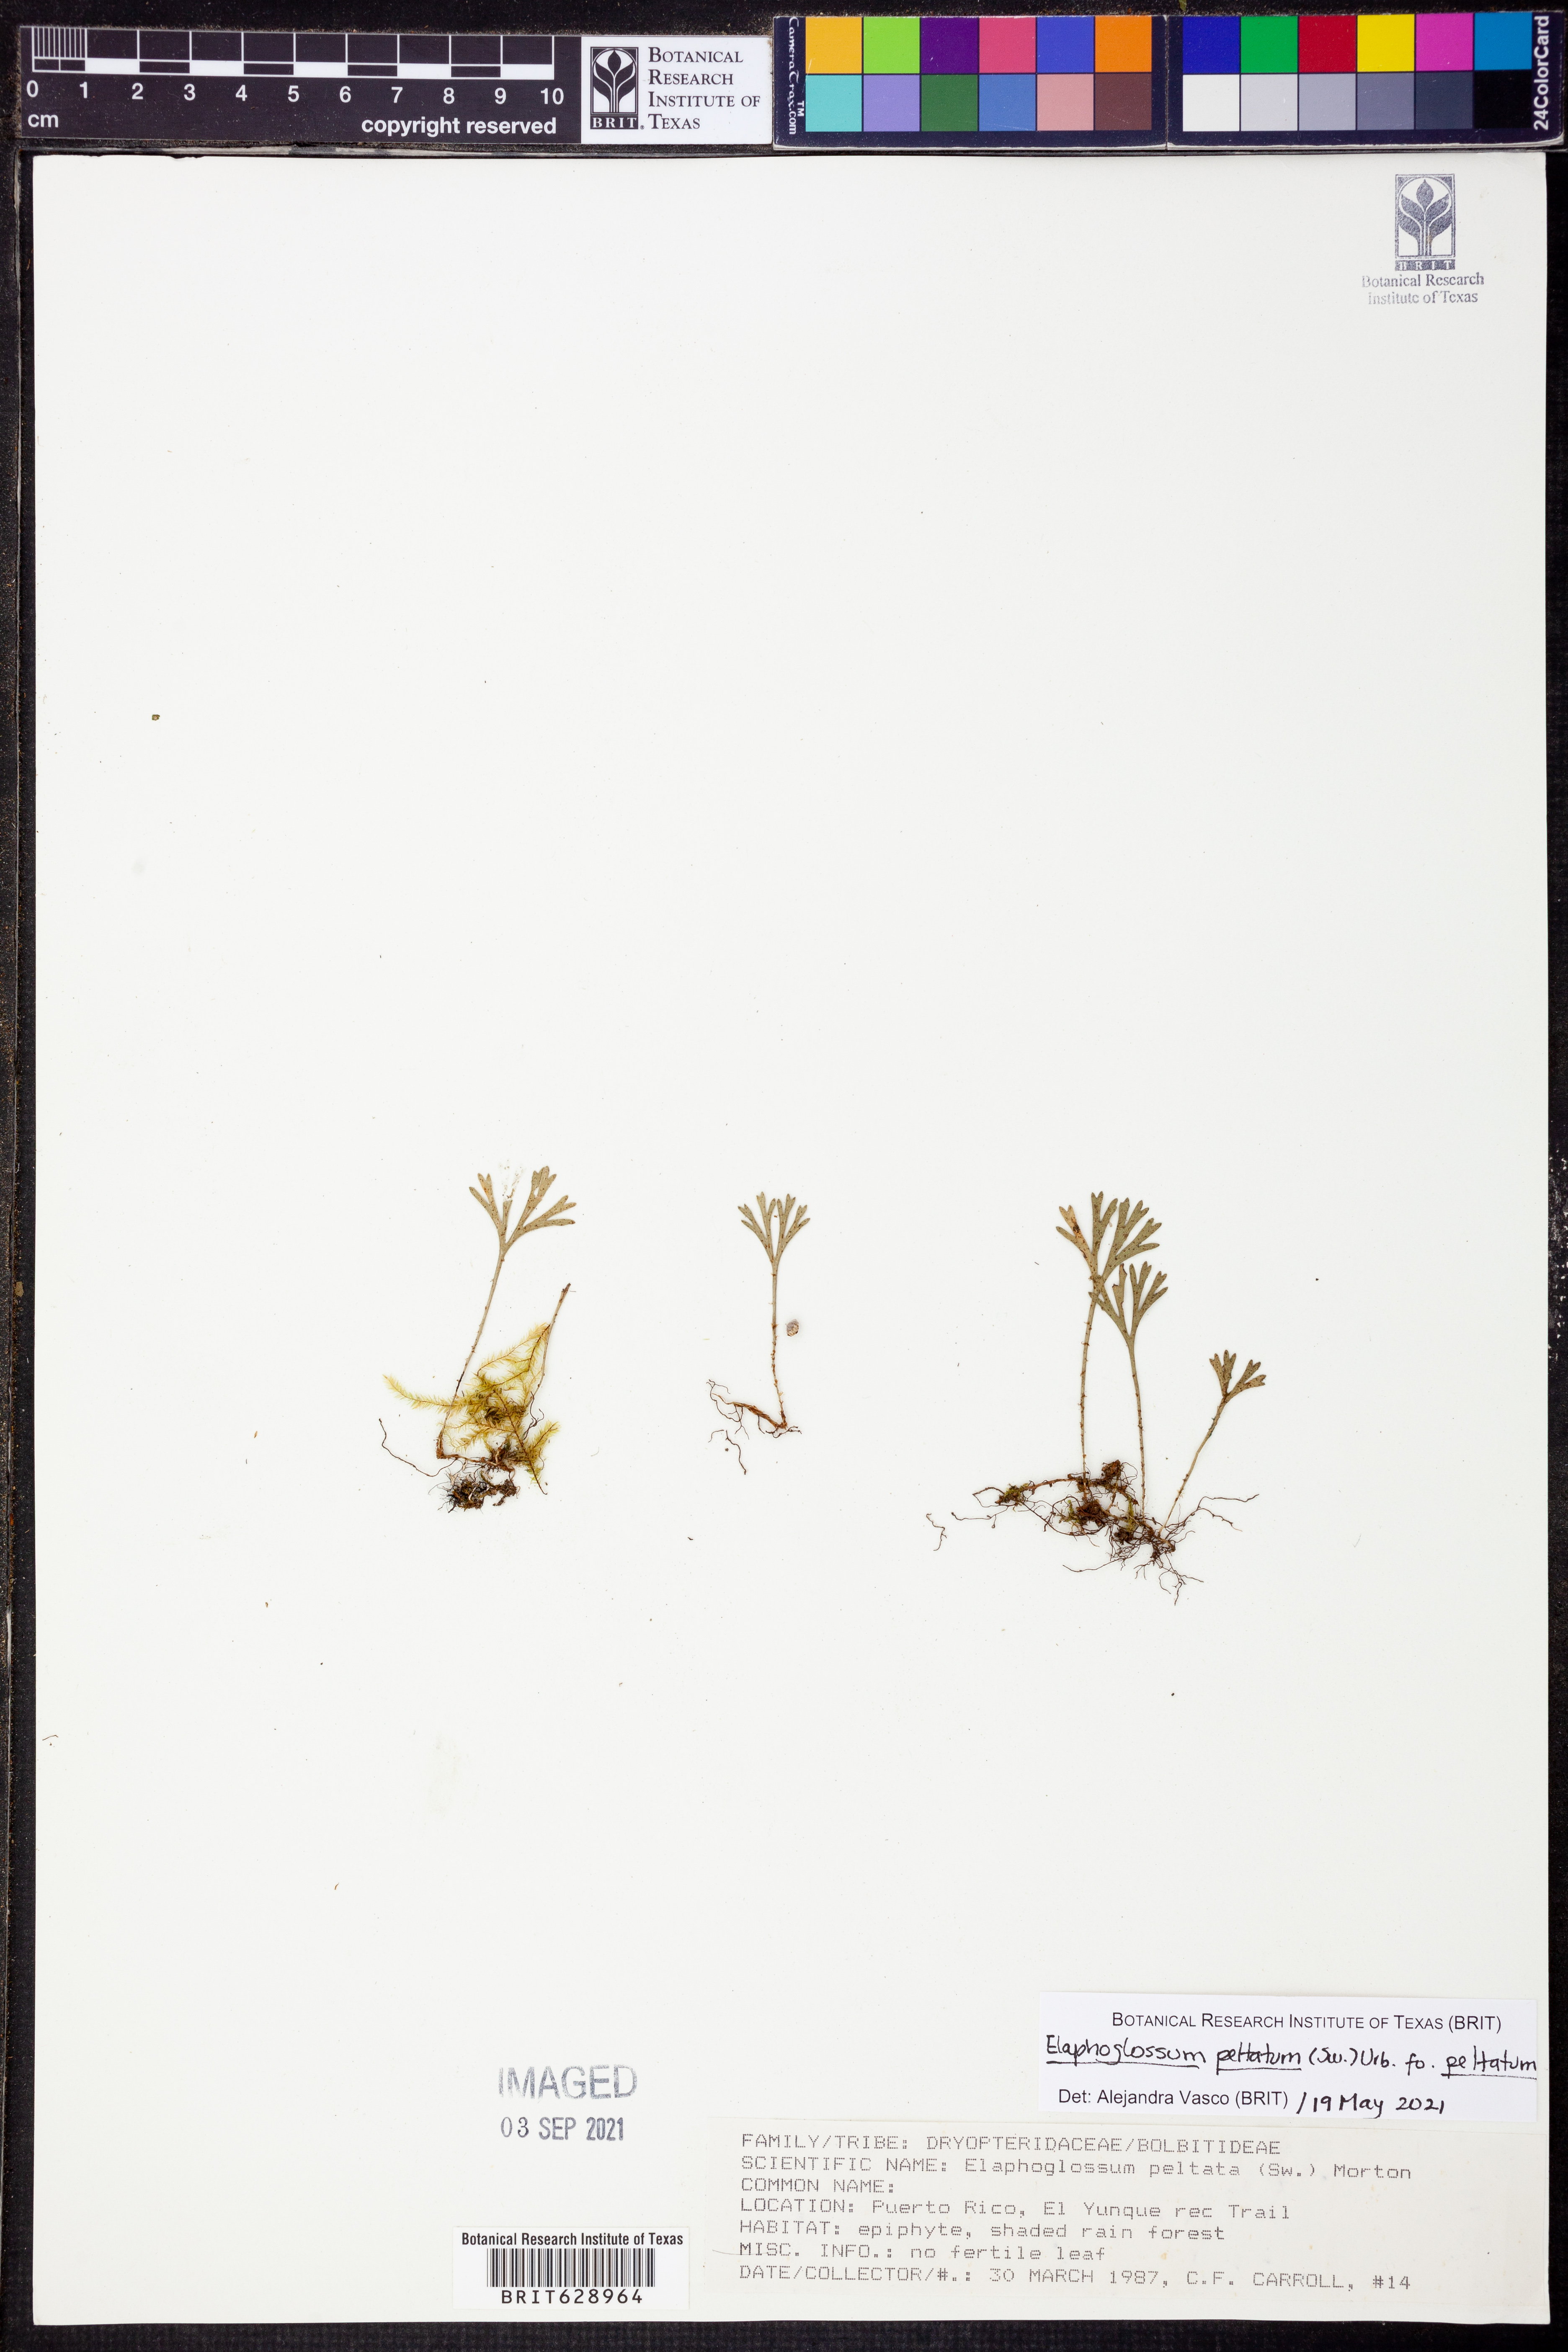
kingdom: Plantae
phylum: Tracheophyta
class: Polypodiopsida
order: Polypodiales
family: Dryopteridaceae
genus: Elaphoglossum
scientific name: Elaphoglossum peltatum
